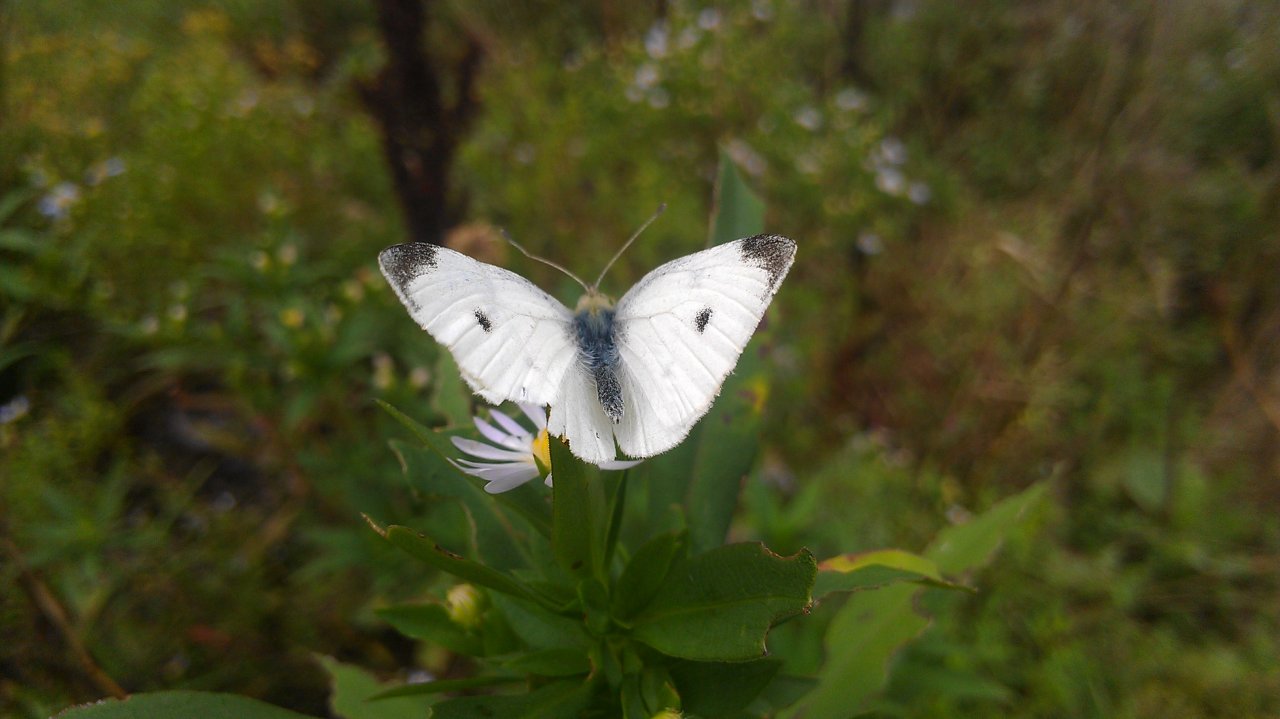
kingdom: Animalia
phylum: Arthropoda
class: Insecta
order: Lepidoptera
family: Pieridae
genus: Pieris
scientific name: Pieris rapae
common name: Cabbage White
